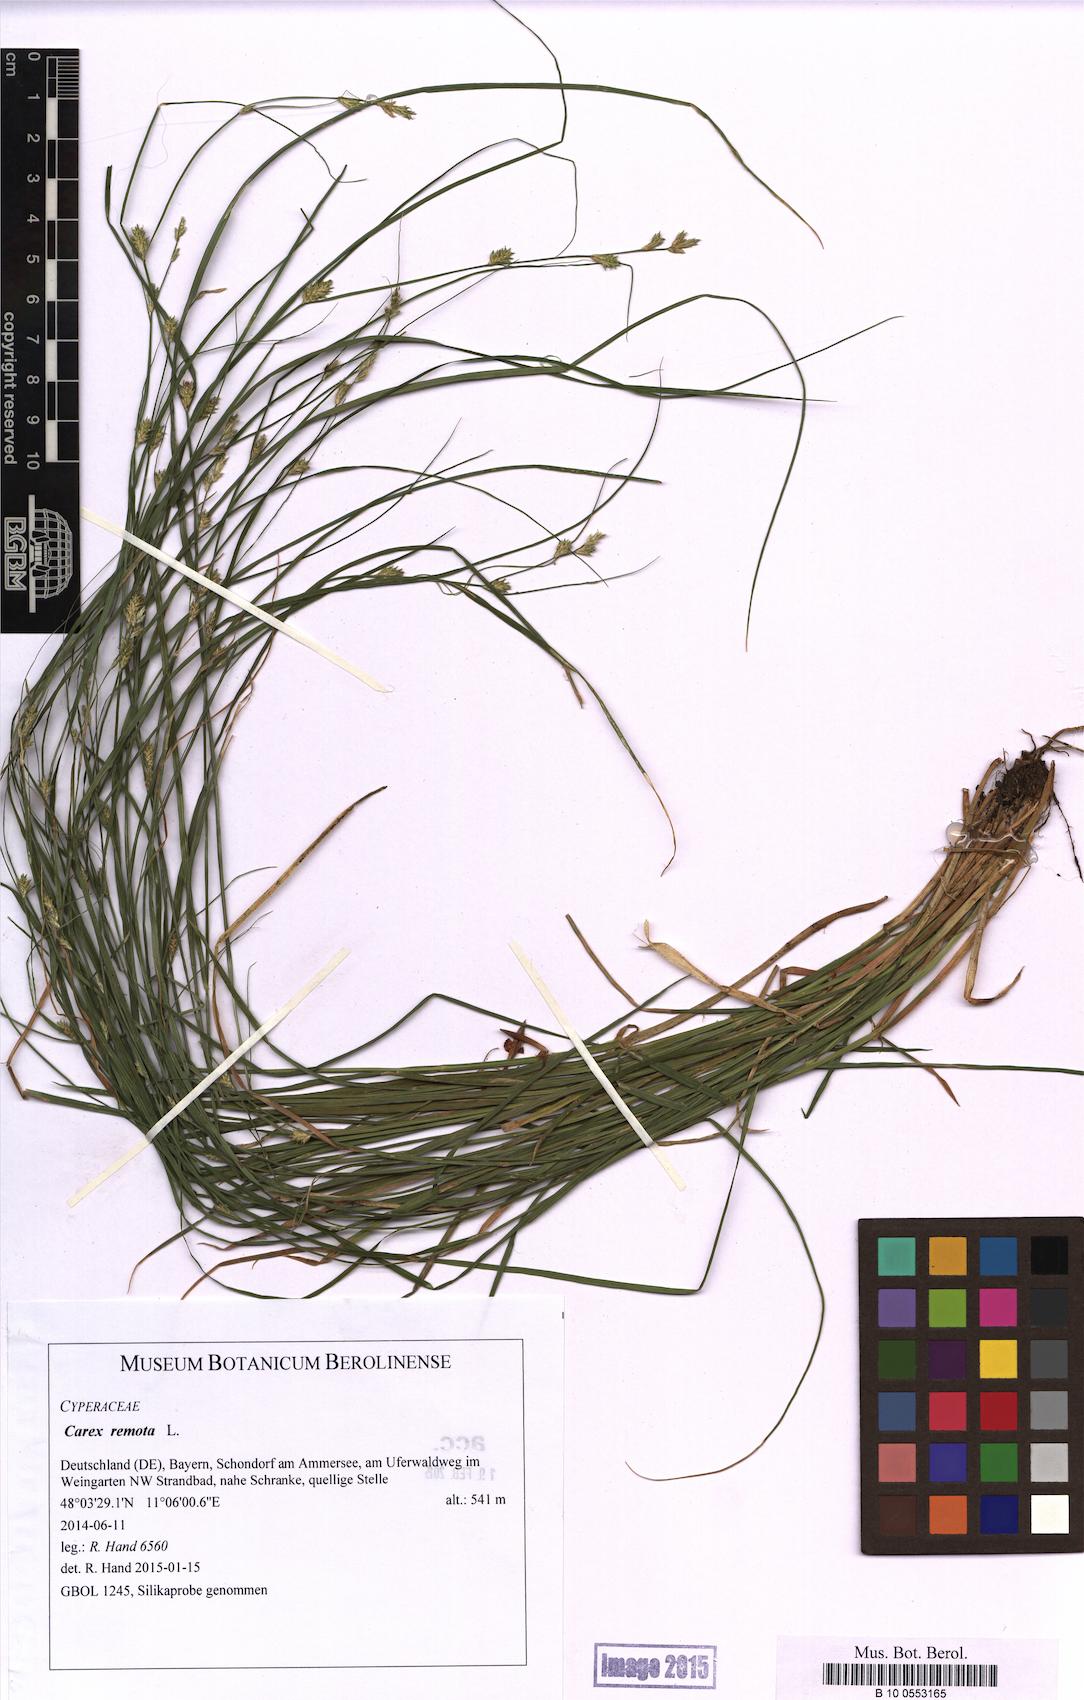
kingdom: Plantae
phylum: Tracheophyta
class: Liliopsida
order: Poales
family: Cyperaceae
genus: Carex
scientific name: Carex remota
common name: Remote sedge
